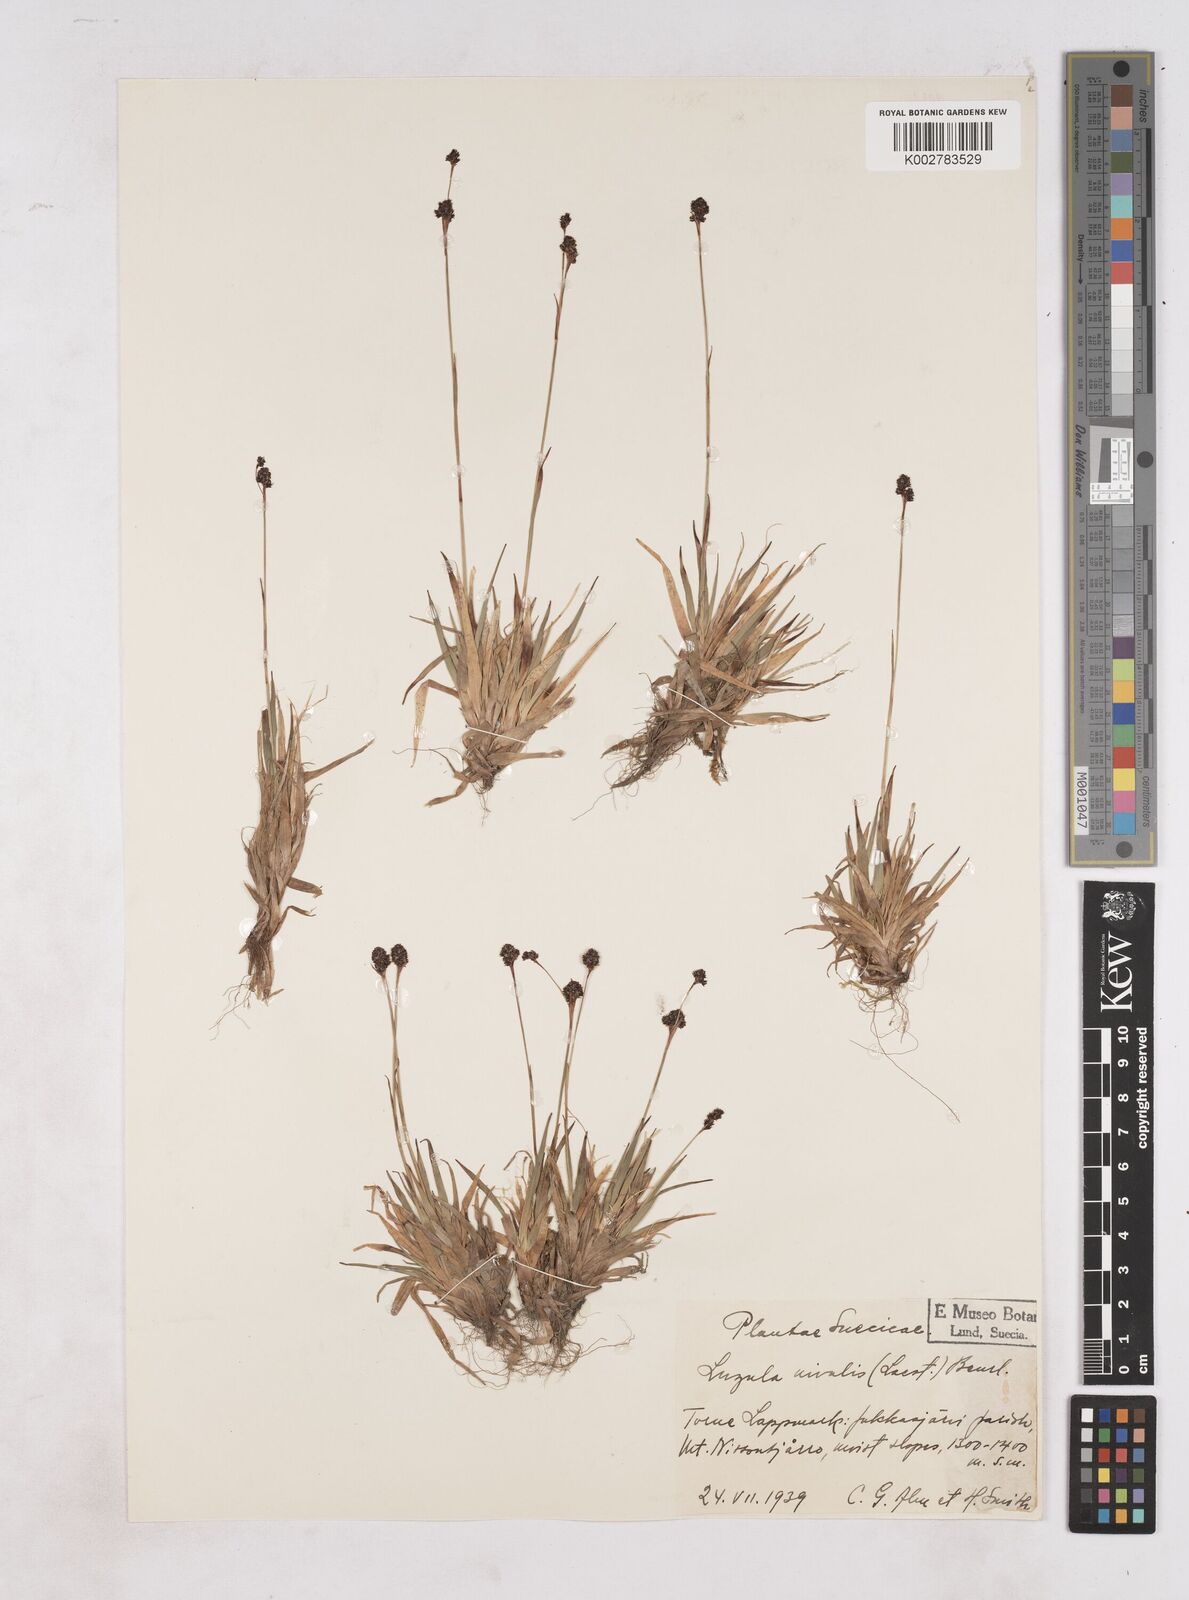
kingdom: Plantae
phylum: Tracheophyta
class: Liliopsida
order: Poales
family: Juncaceae
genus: Luzula
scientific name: Luzula nivalis
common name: Arctic woodrush
